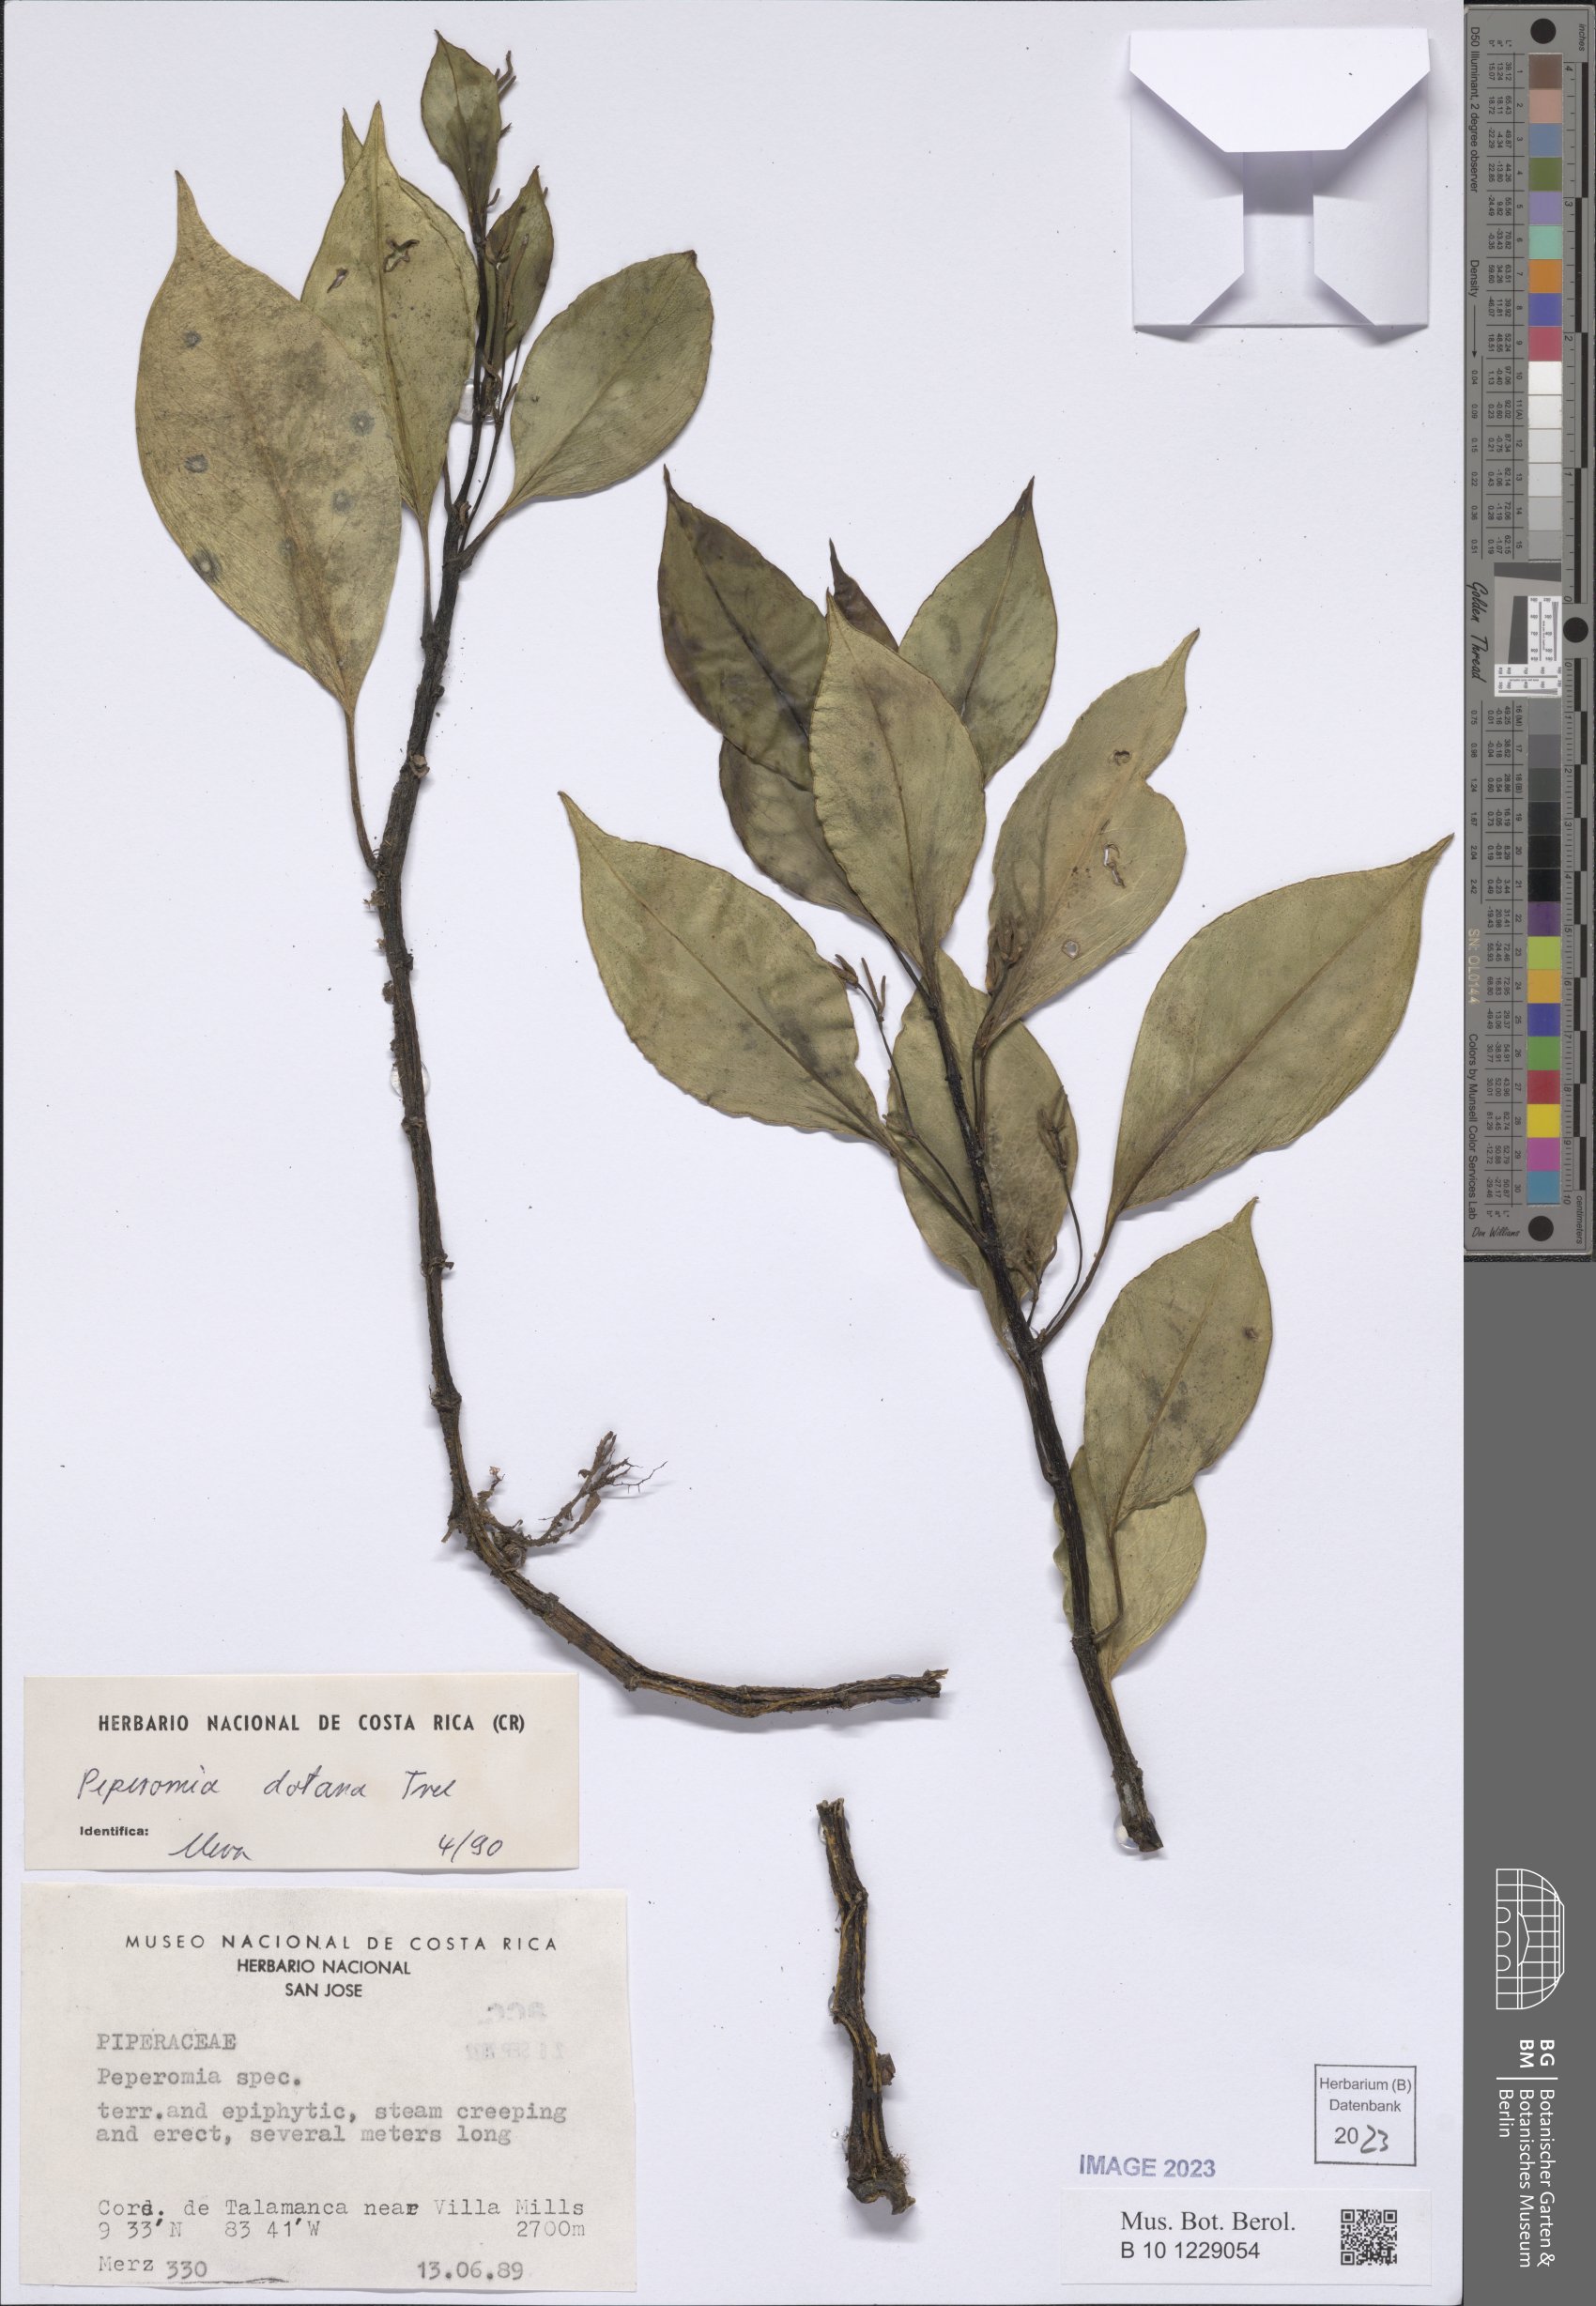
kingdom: Plantae
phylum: Tracheophyta
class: Magnoliopsida
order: Piperales
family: Piperaceae
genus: Peperomia
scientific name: Peperomia dotana
